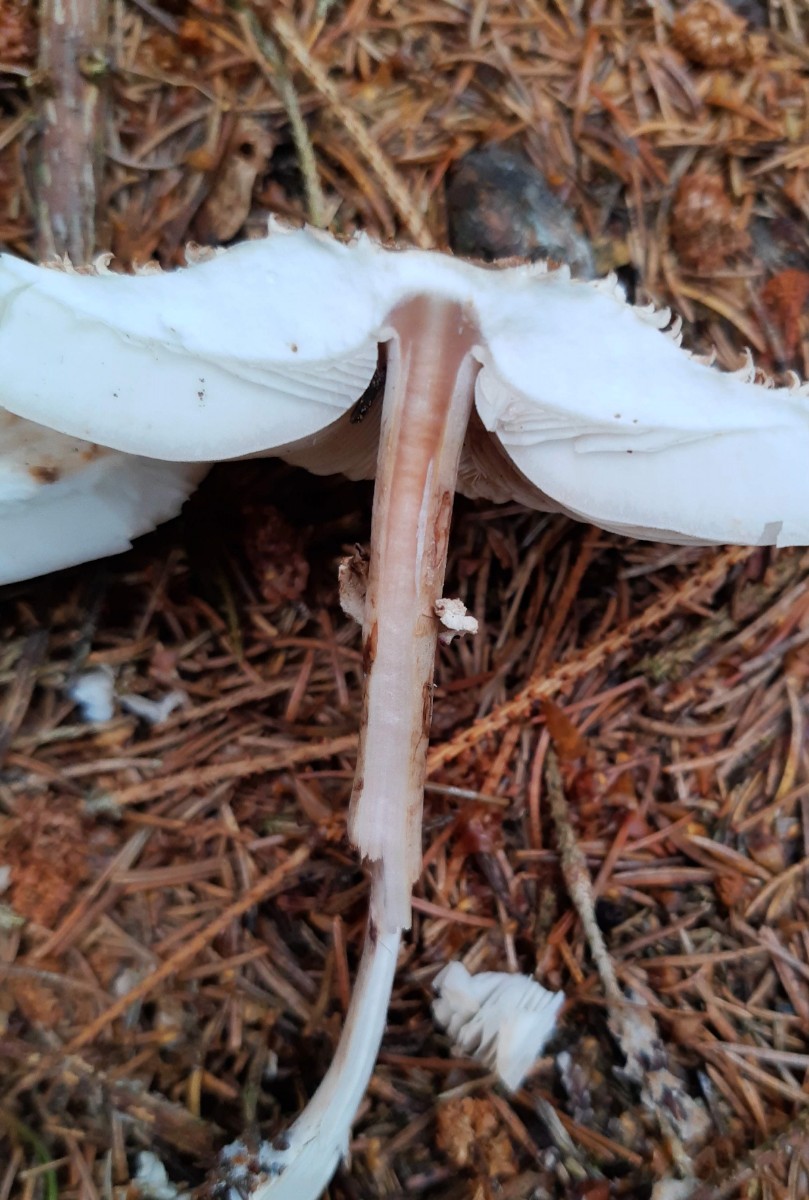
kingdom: Fungi
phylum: Basidiomycota
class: Agaricomycetes
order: Agaricales
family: Agaricaceae
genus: Leucoagaricus
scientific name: Leucoagaricus nympharum
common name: gran-silkehat
